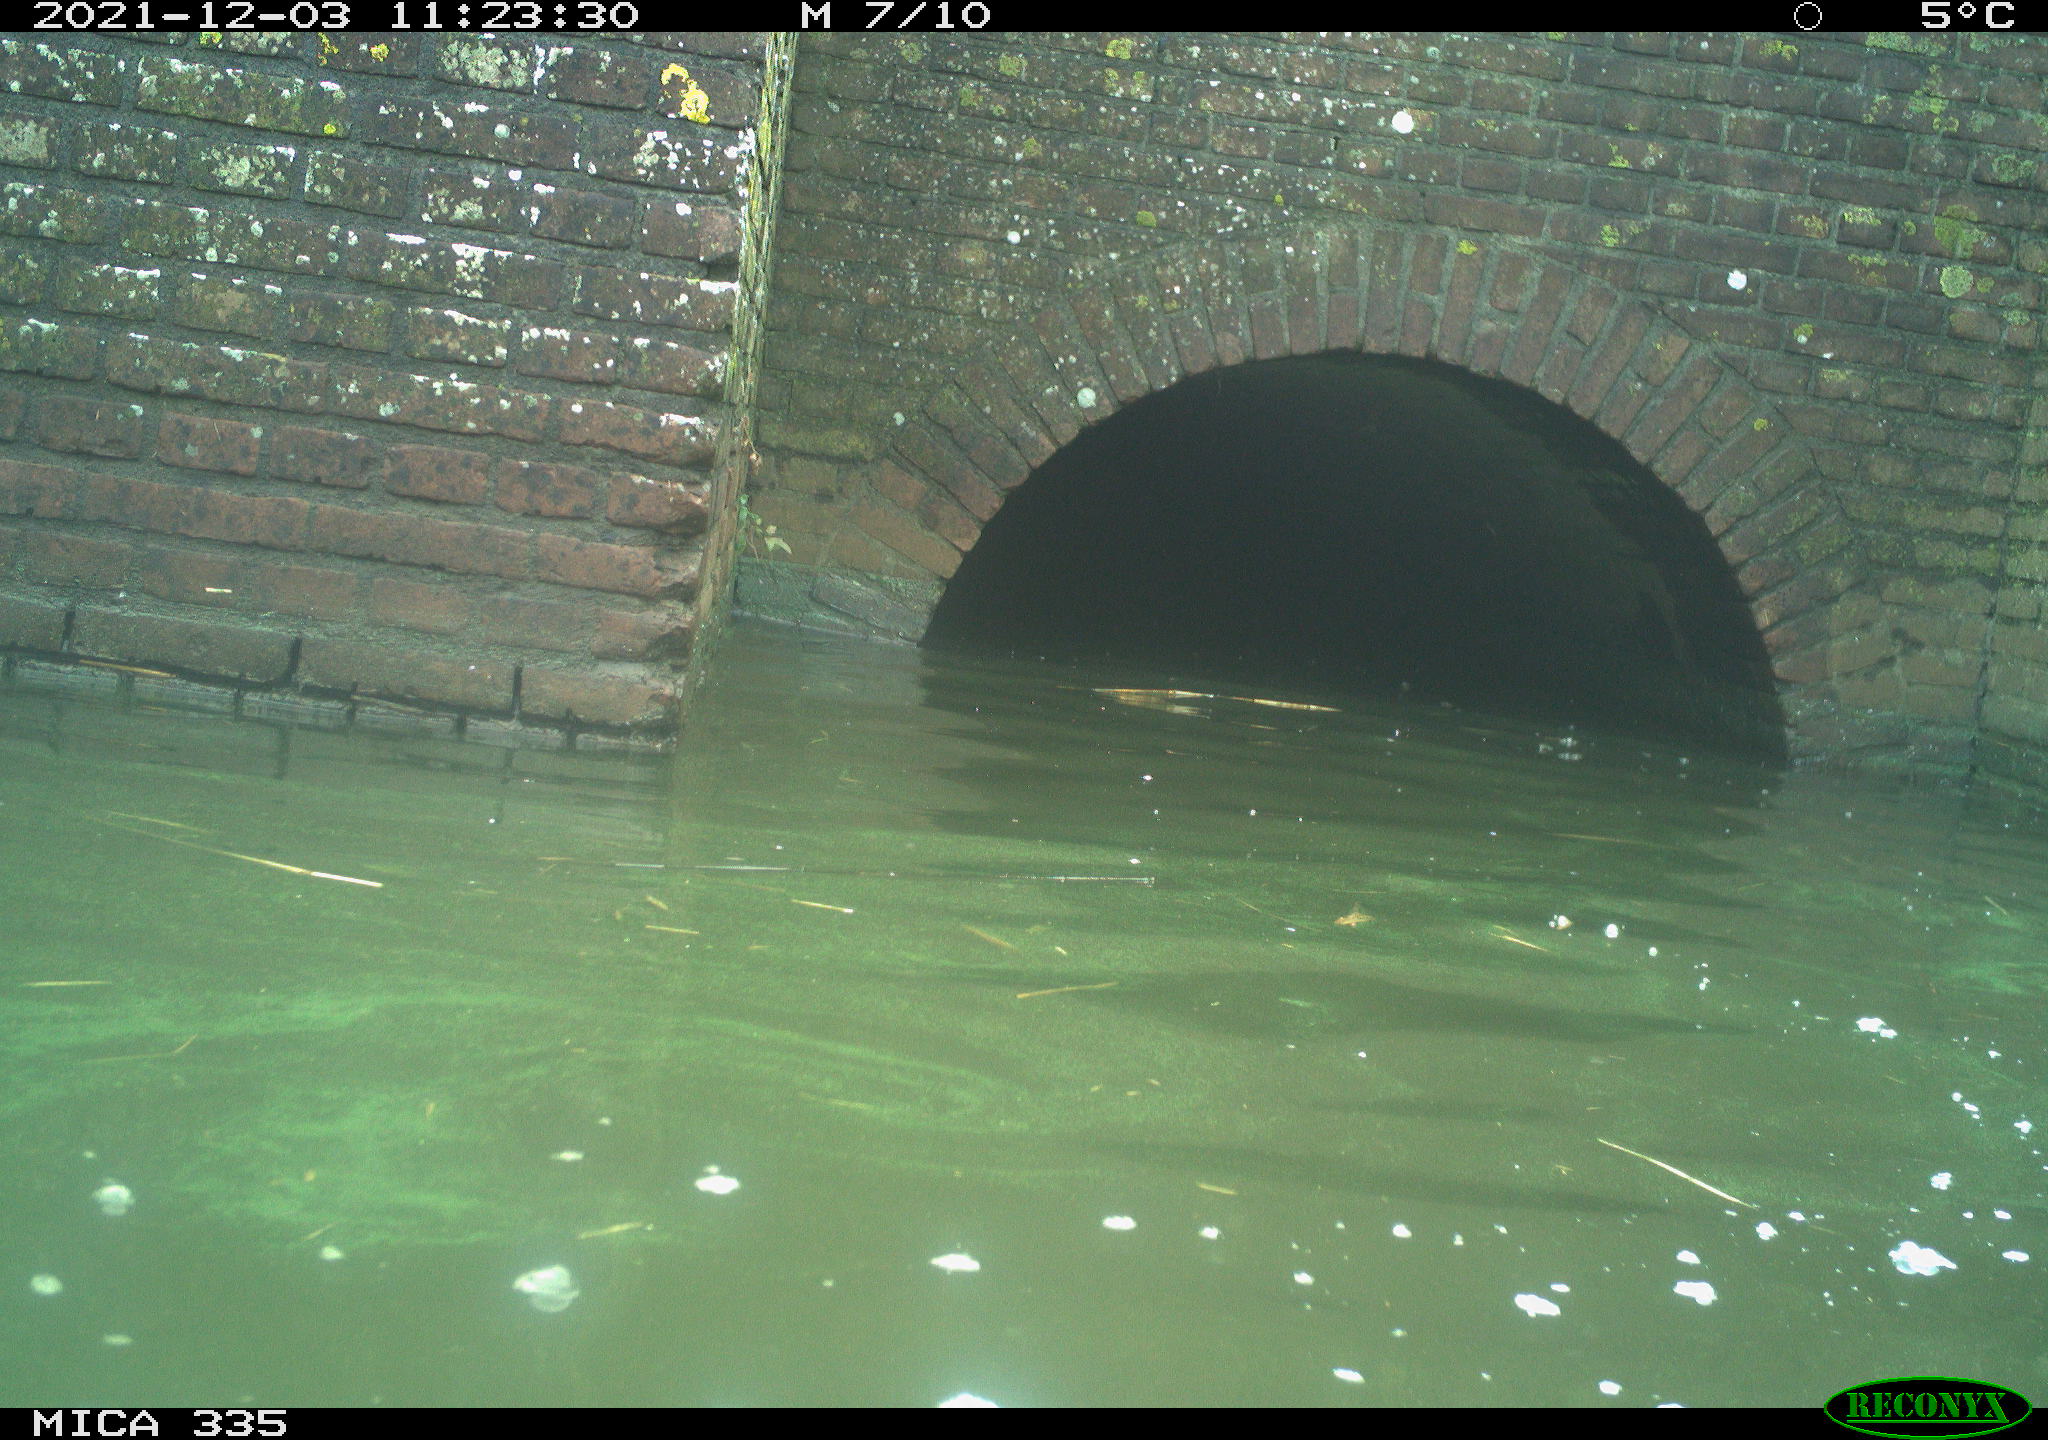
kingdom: Animalia
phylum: Chordata
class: Aves
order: Gruiformes
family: Rallidae
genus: Fulica
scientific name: Fulica atra
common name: Eurasian coot
